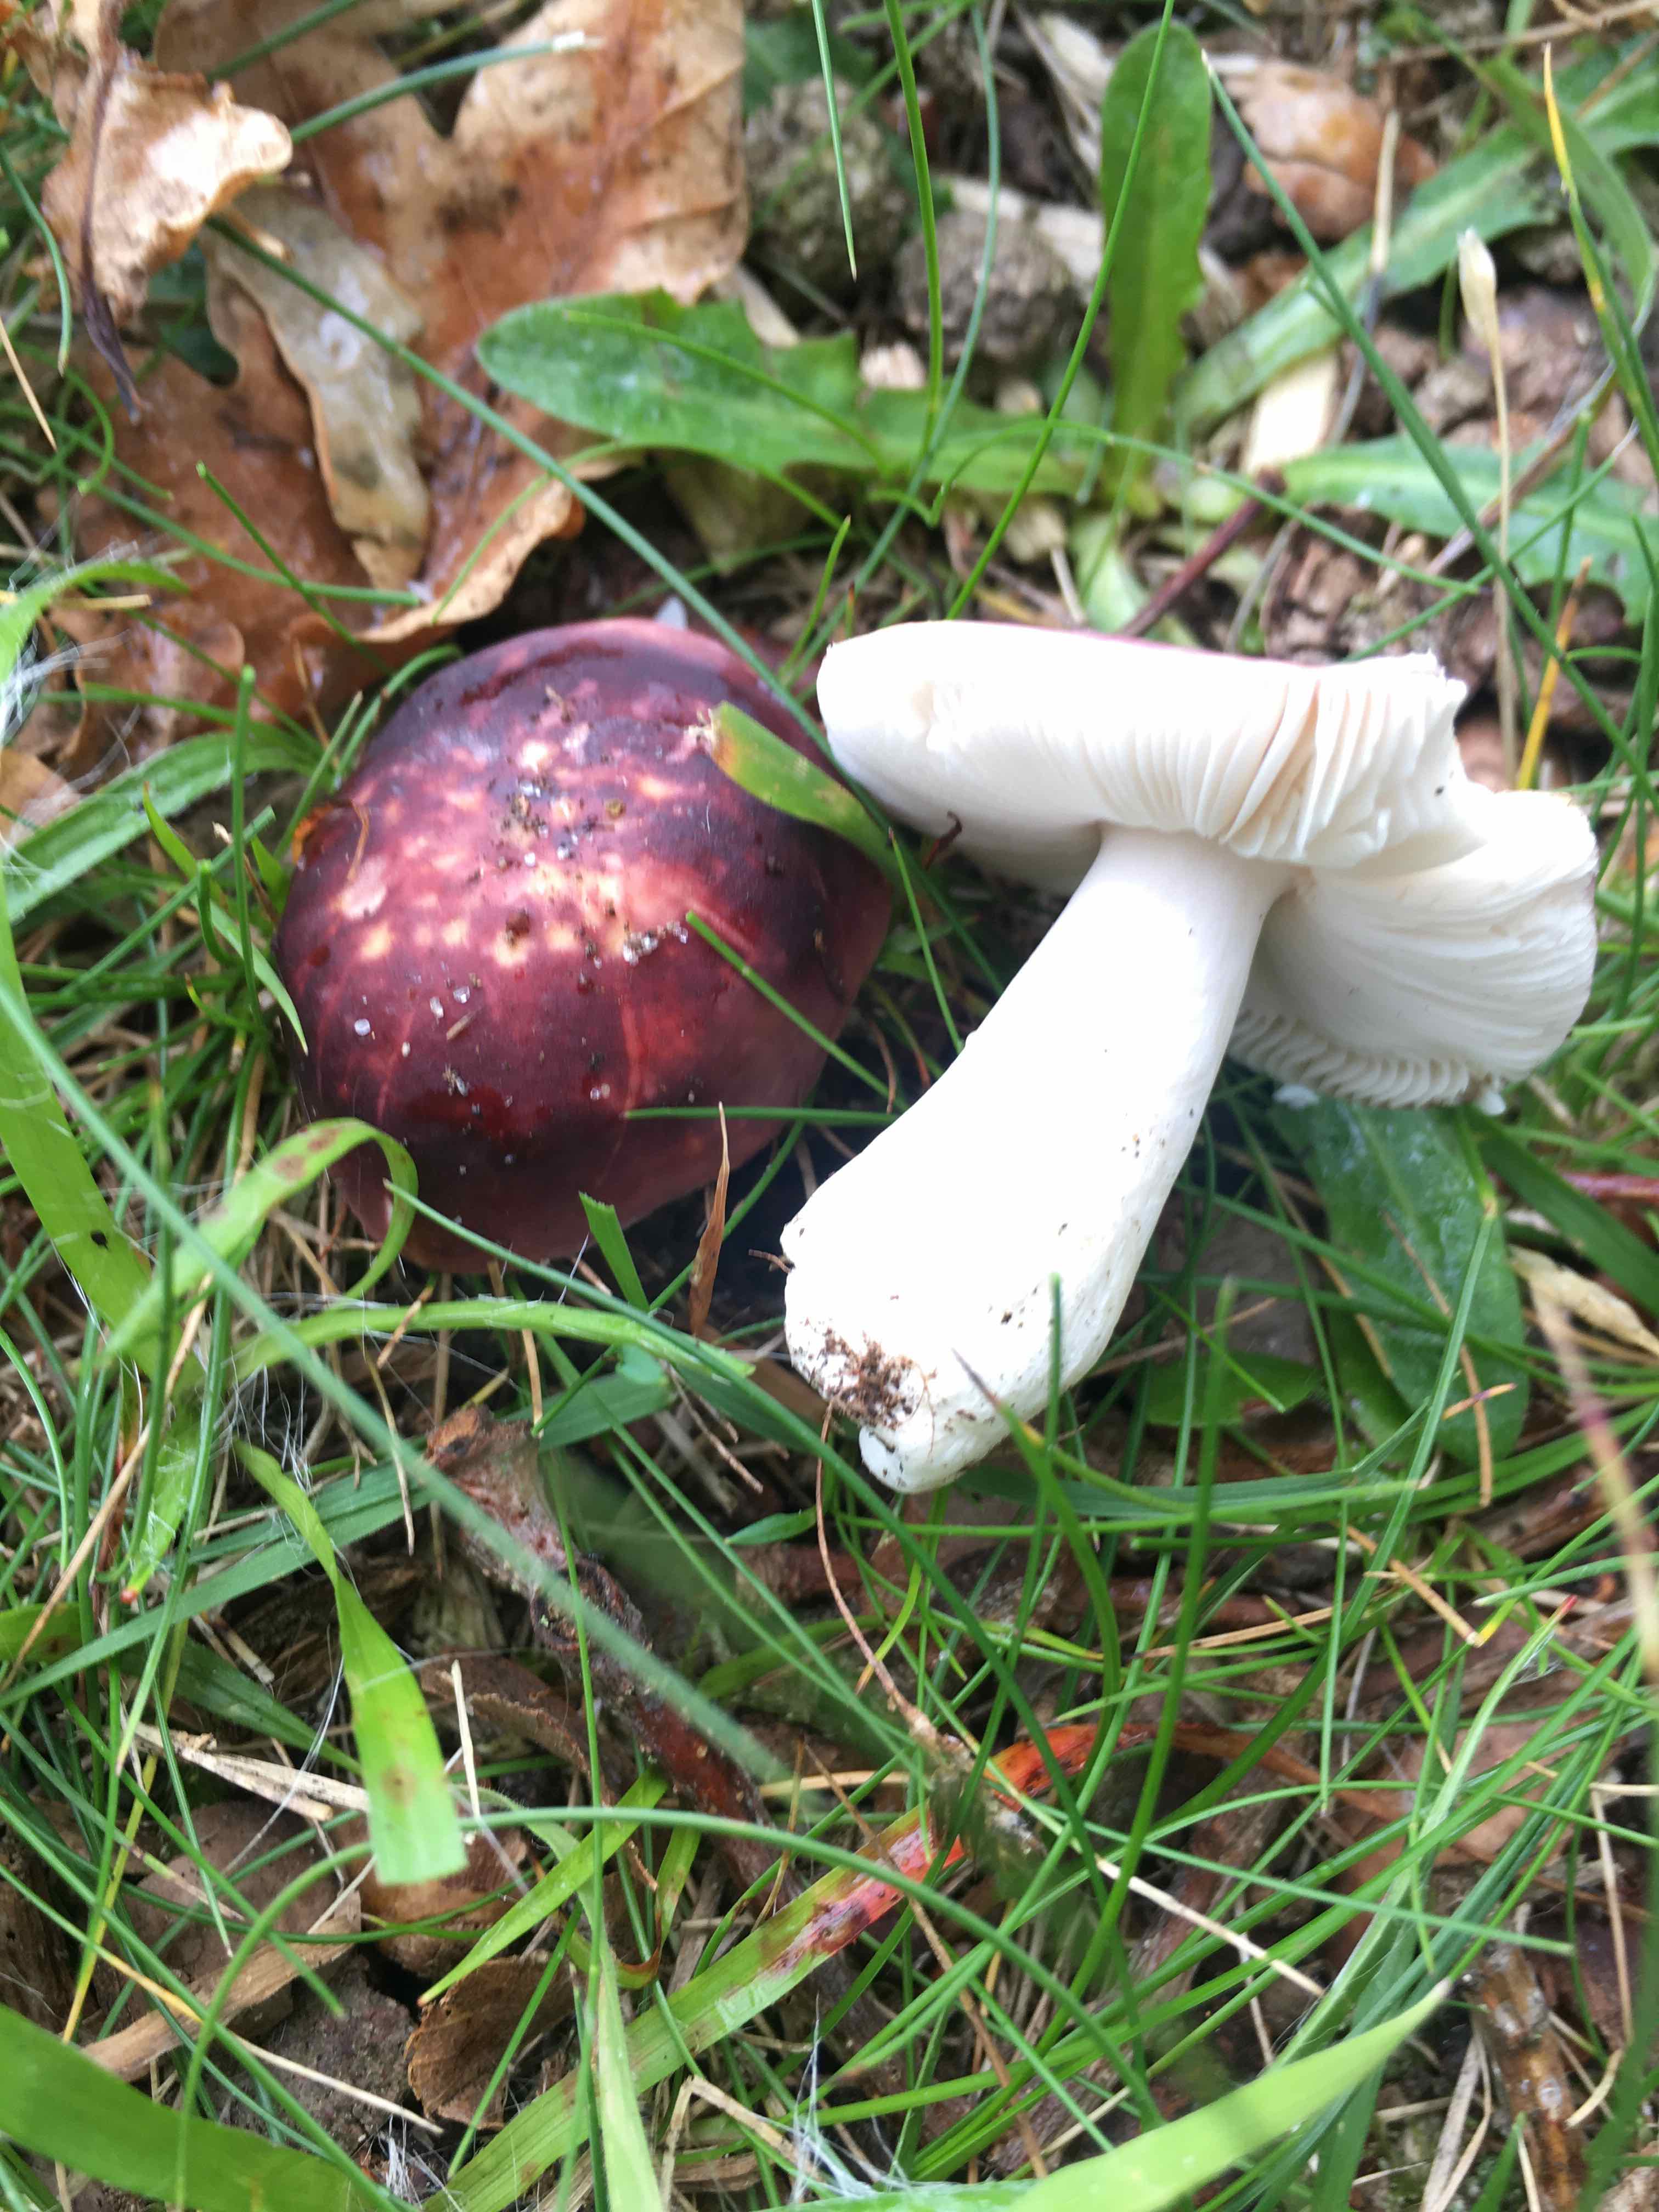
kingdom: Fungi
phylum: Basidiomycota
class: Agaricomycetes
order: Russulales
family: Russulaceae
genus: Russula
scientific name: Russula atropurpurea
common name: purpurbroget skørhat
